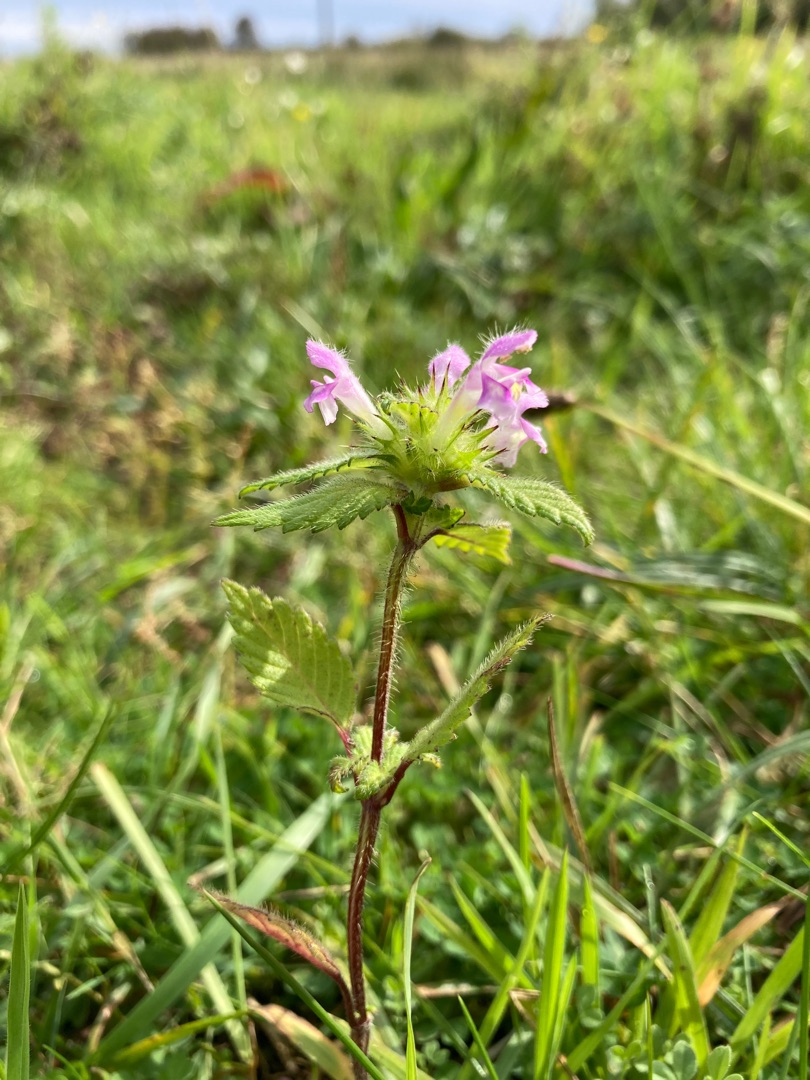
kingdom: Plantae
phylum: Tracheophyta
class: Magnoliopsida
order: Lamiales
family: Lamiaceae
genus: Galeopsis
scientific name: Galeopsis tetrahit
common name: Almindelig hanekro
